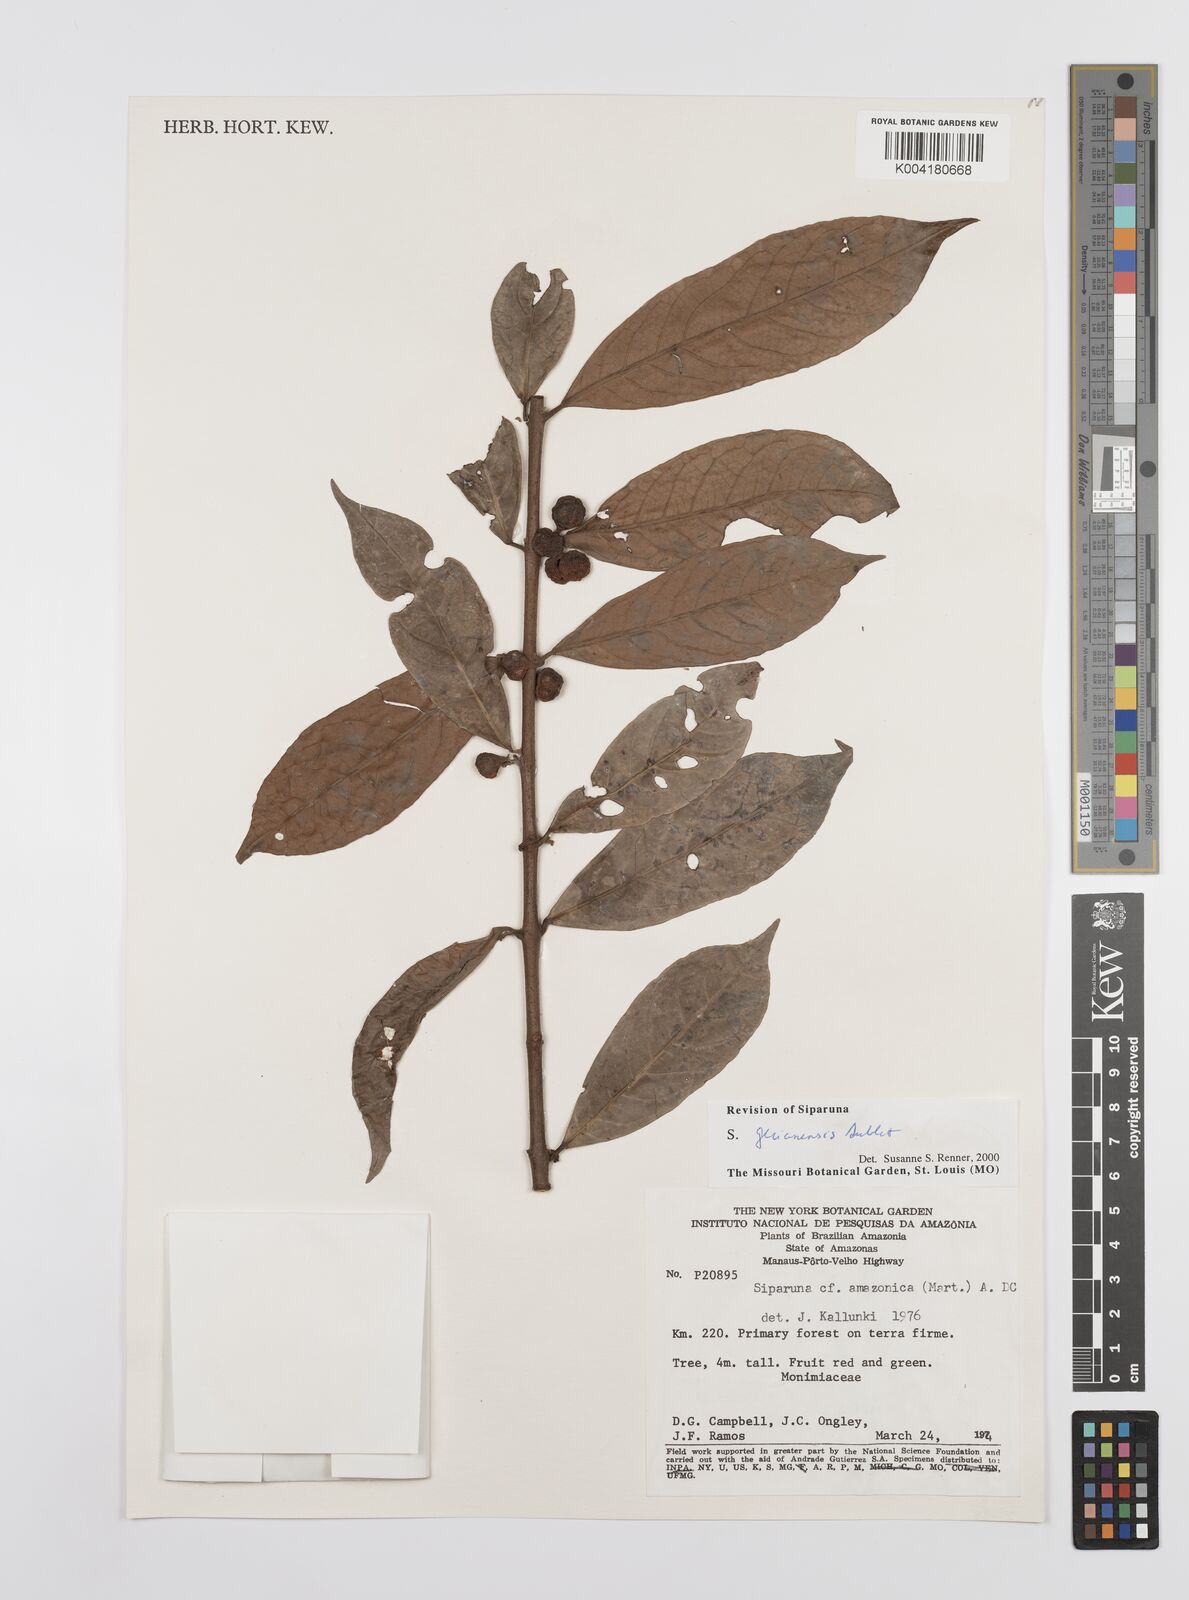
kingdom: Plantae
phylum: Tracheophyta
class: Magnoliopsida
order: Laurales
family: Siparunaceae
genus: Siparuna
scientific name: Siparuna guianensis
